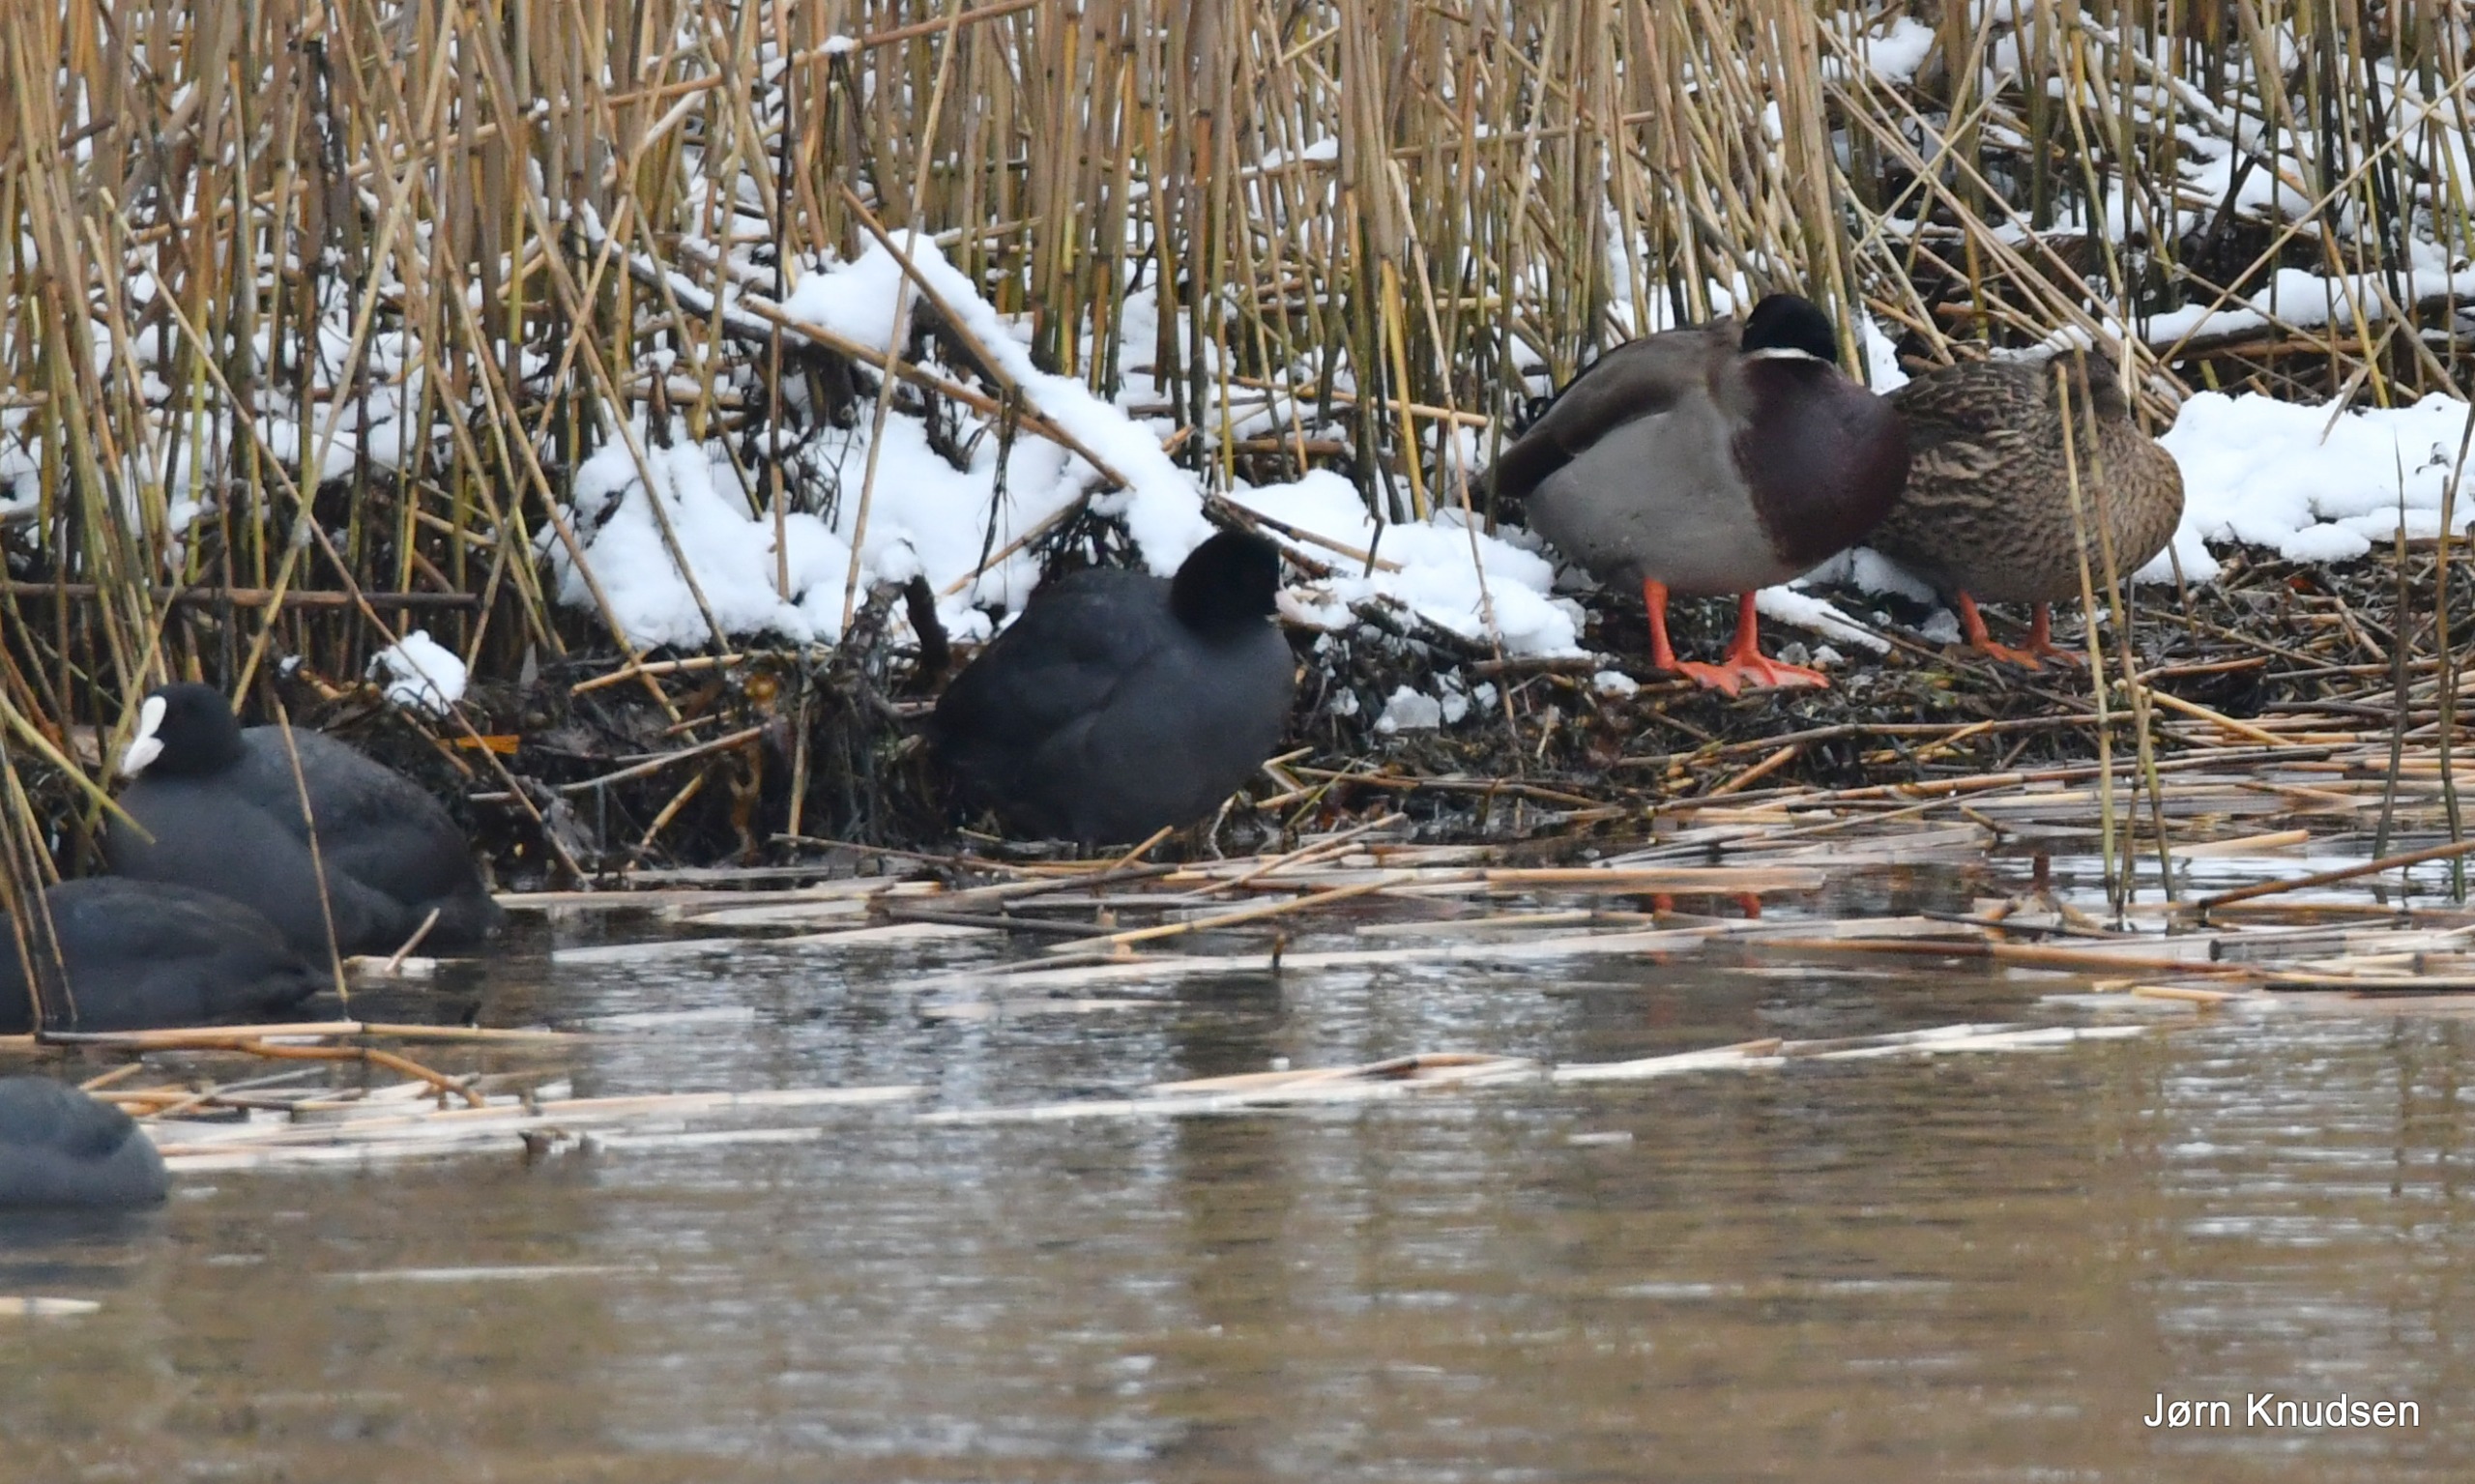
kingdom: Animalia
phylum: Chordata
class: Aves
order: Gruiformes
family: Rallidae
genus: Fulica
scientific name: Fulica atra
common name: Blishøne
